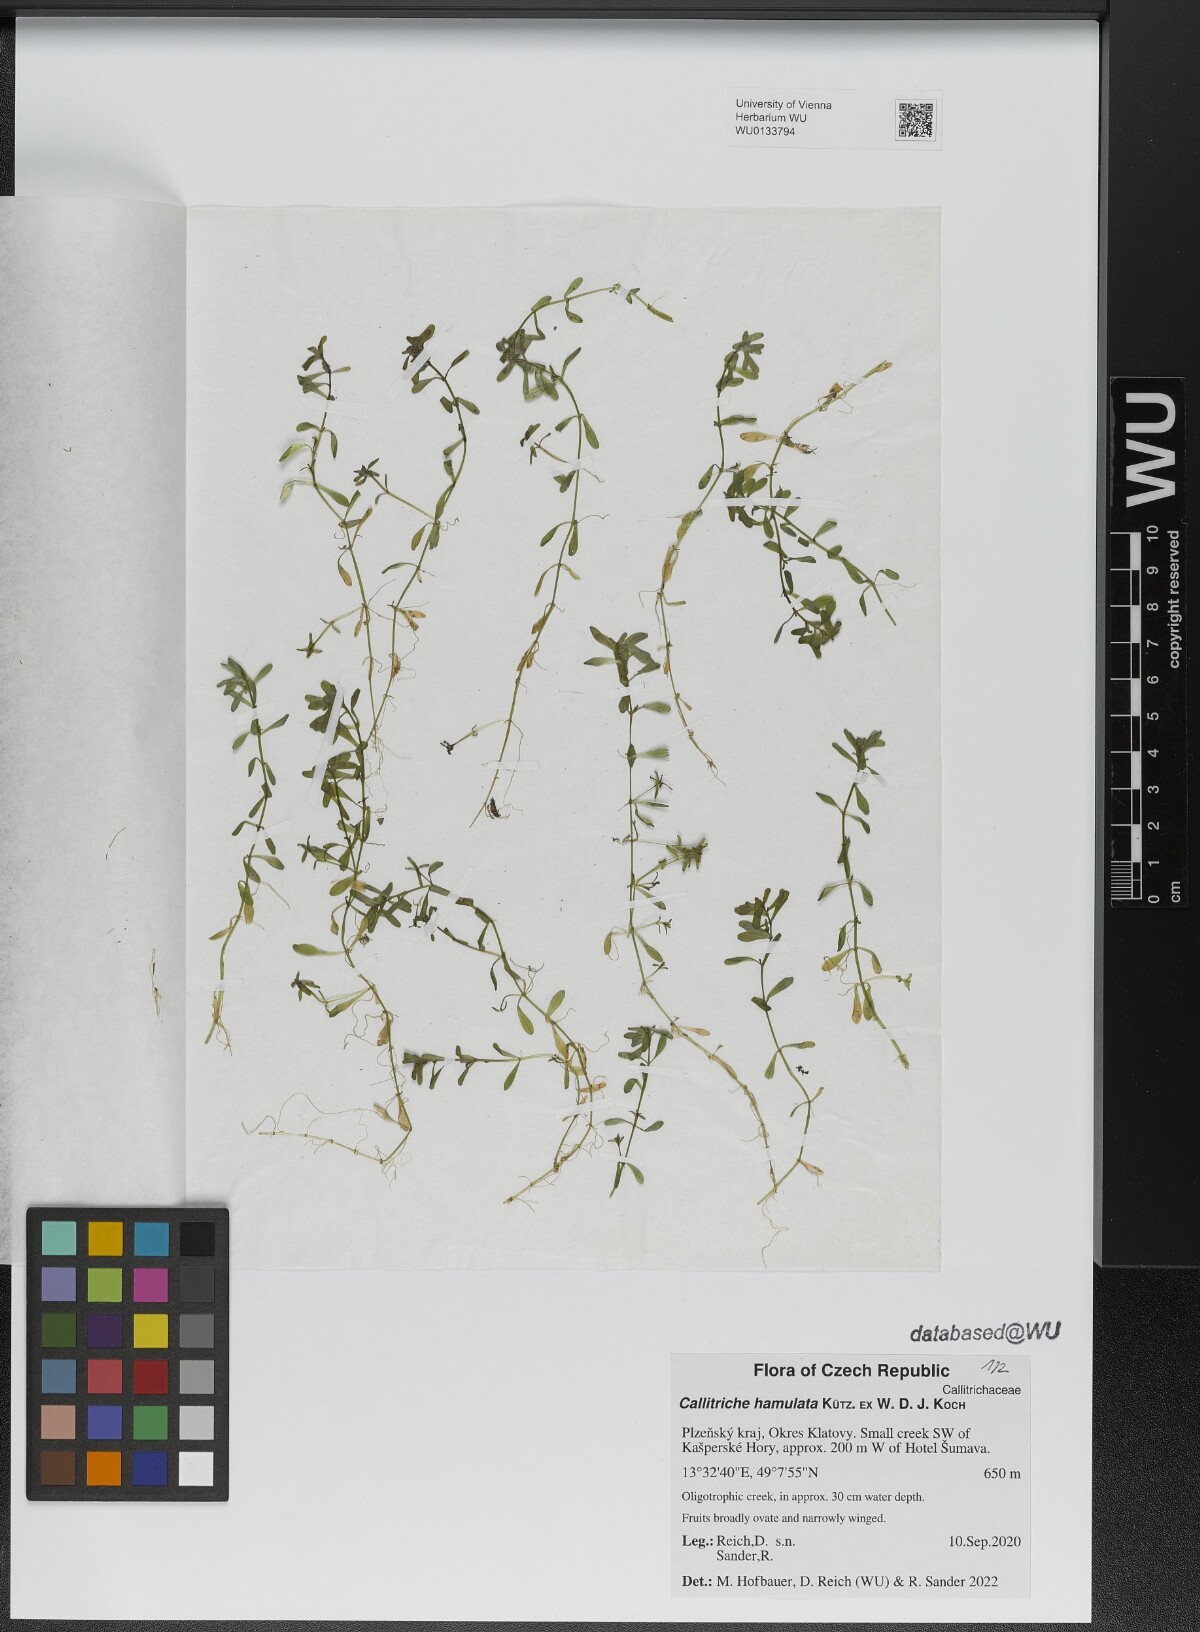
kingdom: Plantae
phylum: Tracheophyta
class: Magnoliopsida
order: Lamiales
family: Plantaginaceae
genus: Callitriche
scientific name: Callitriche hamulata
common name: Intermediate water-starwort
